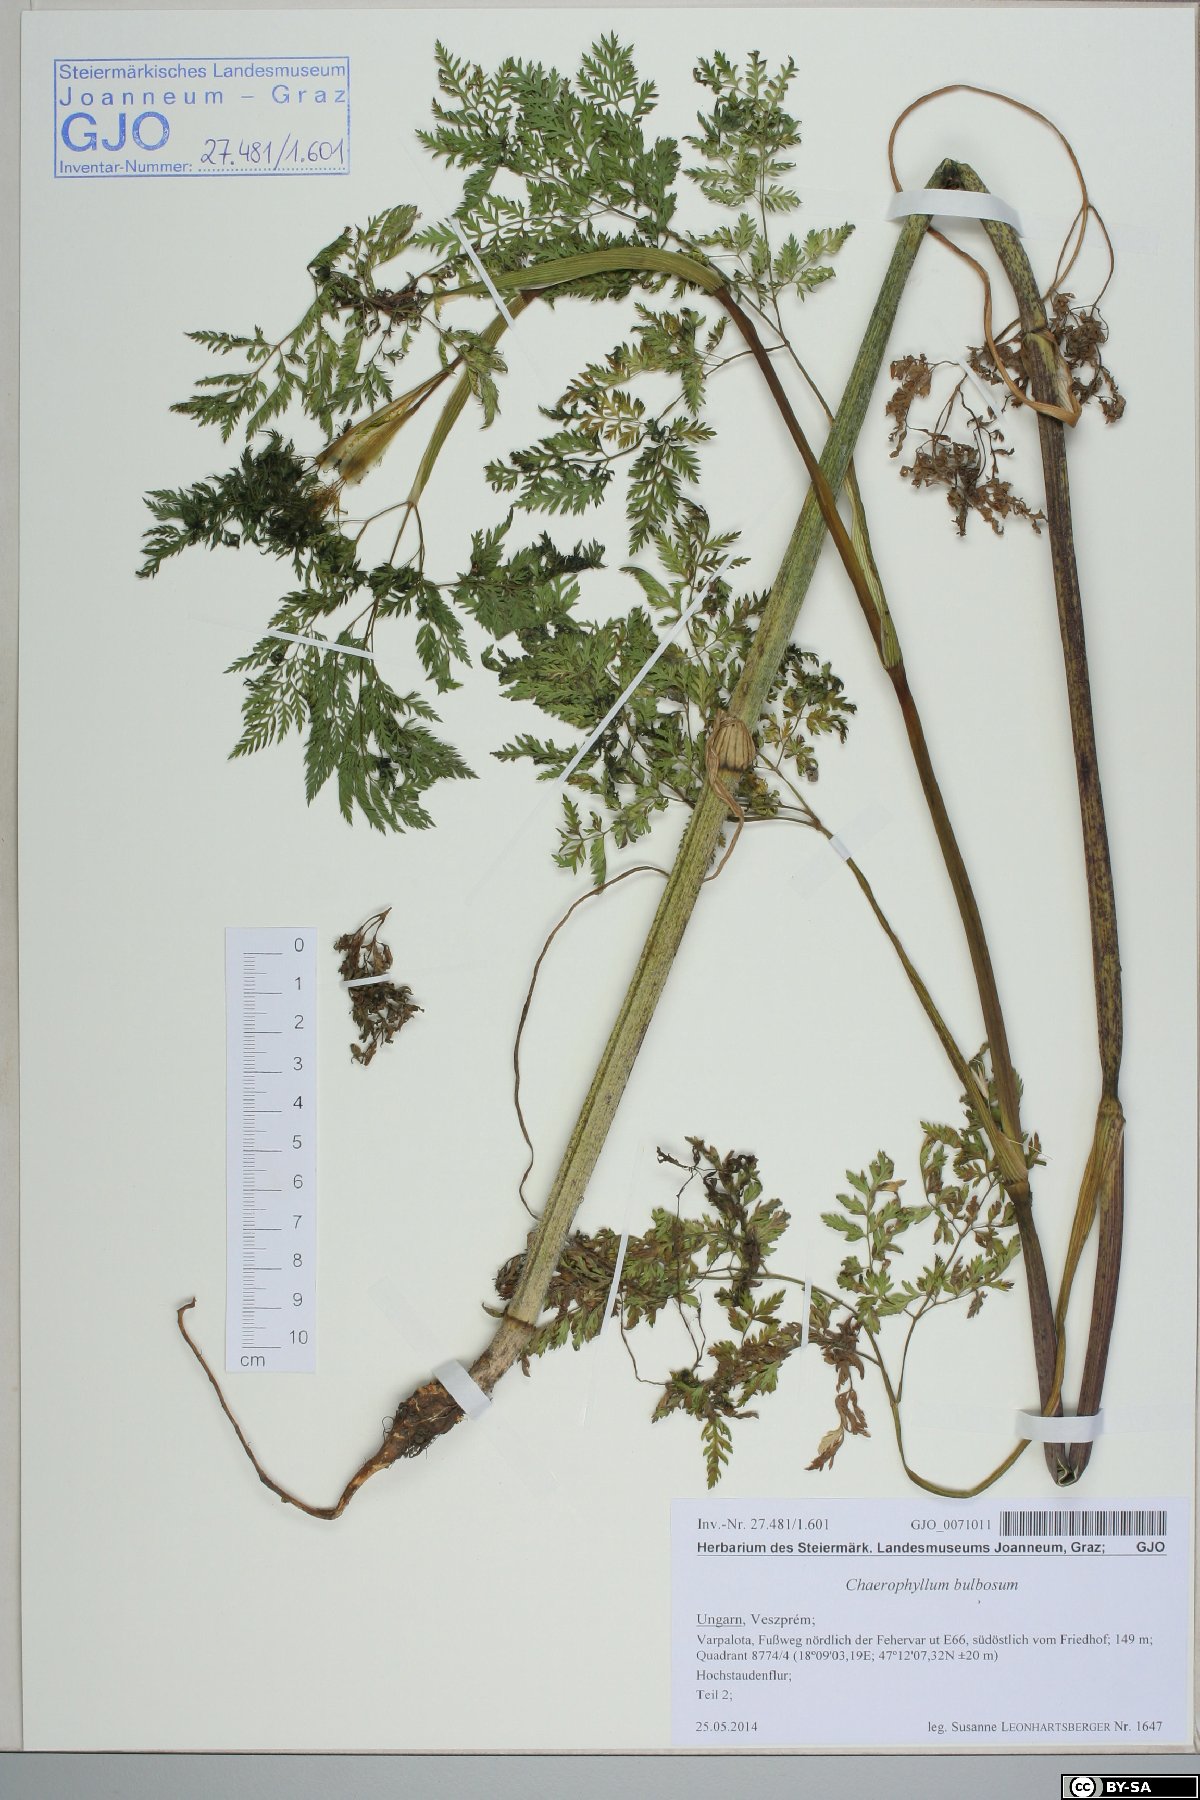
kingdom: Plantae
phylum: Tracheophyta
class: Magnoliopsida
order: Apiales
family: Apiaceae
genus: Chaerophyllum
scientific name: Chaerophyllum bulbosum
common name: Bulbous chervil
